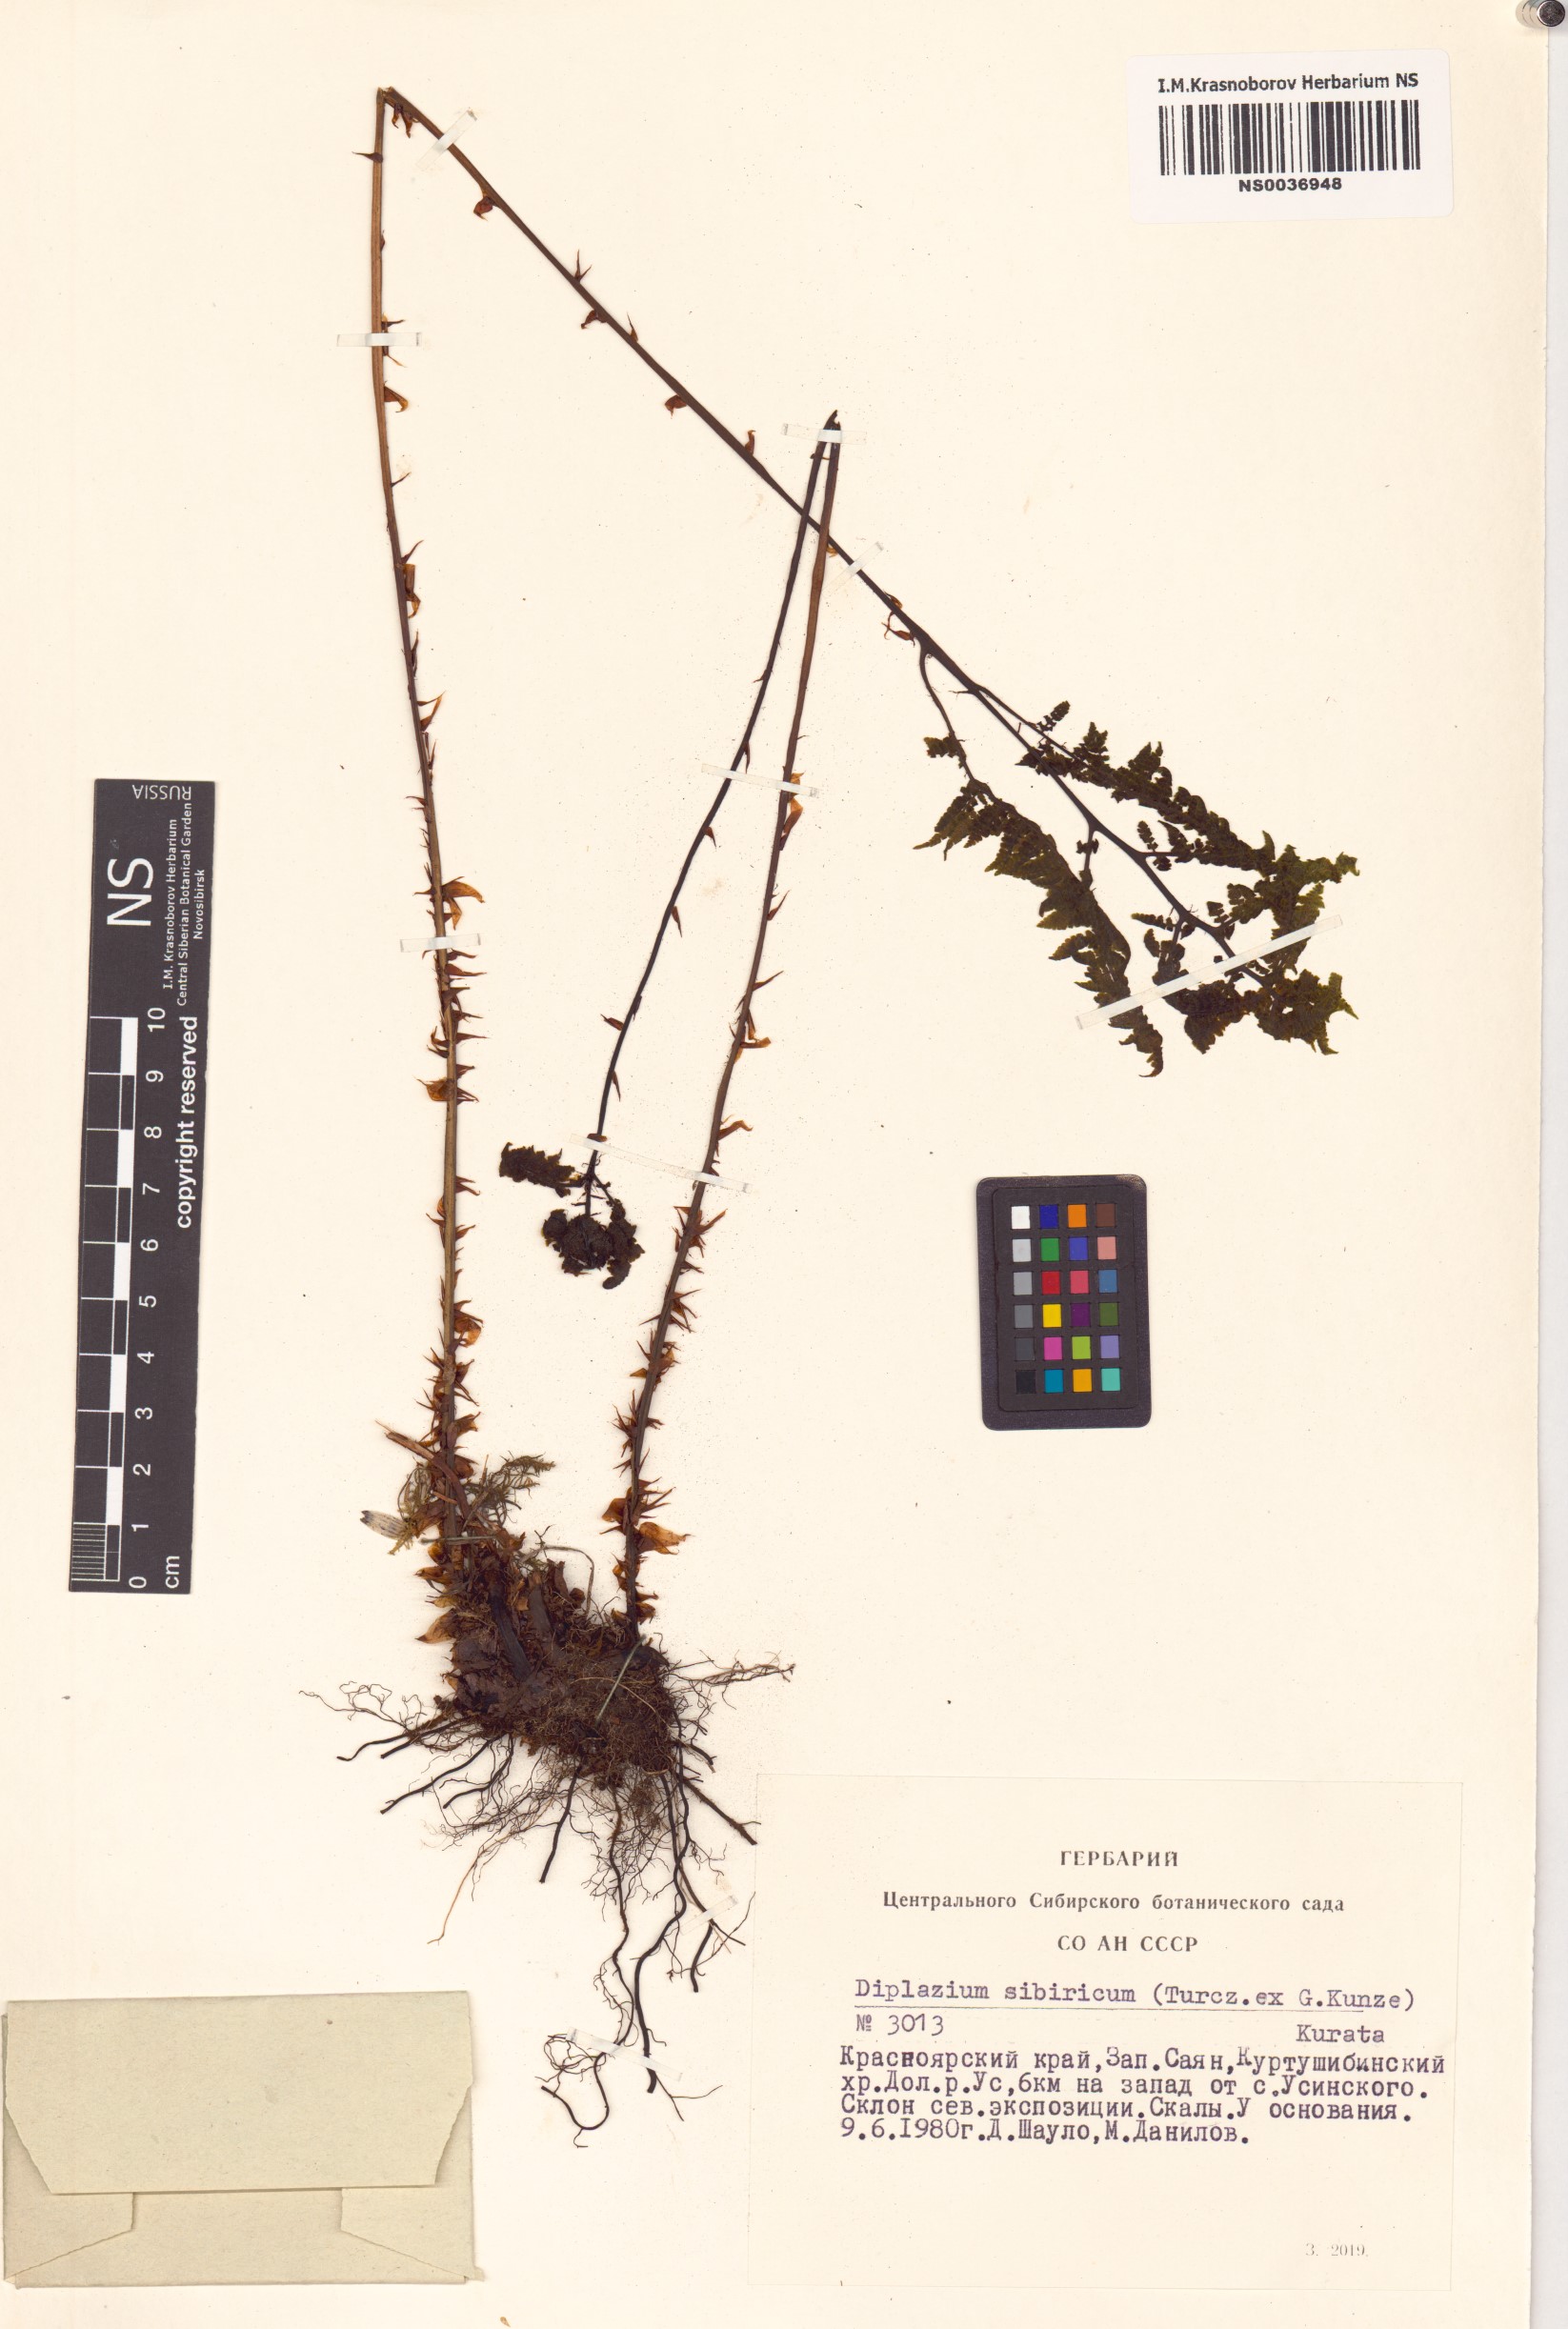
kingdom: Plantae
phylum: Tracheophyta
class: Polypodiopsida
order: Polypodiales
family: Athyriaceae
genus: Diplazium
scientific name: Diplazium sibiricum
